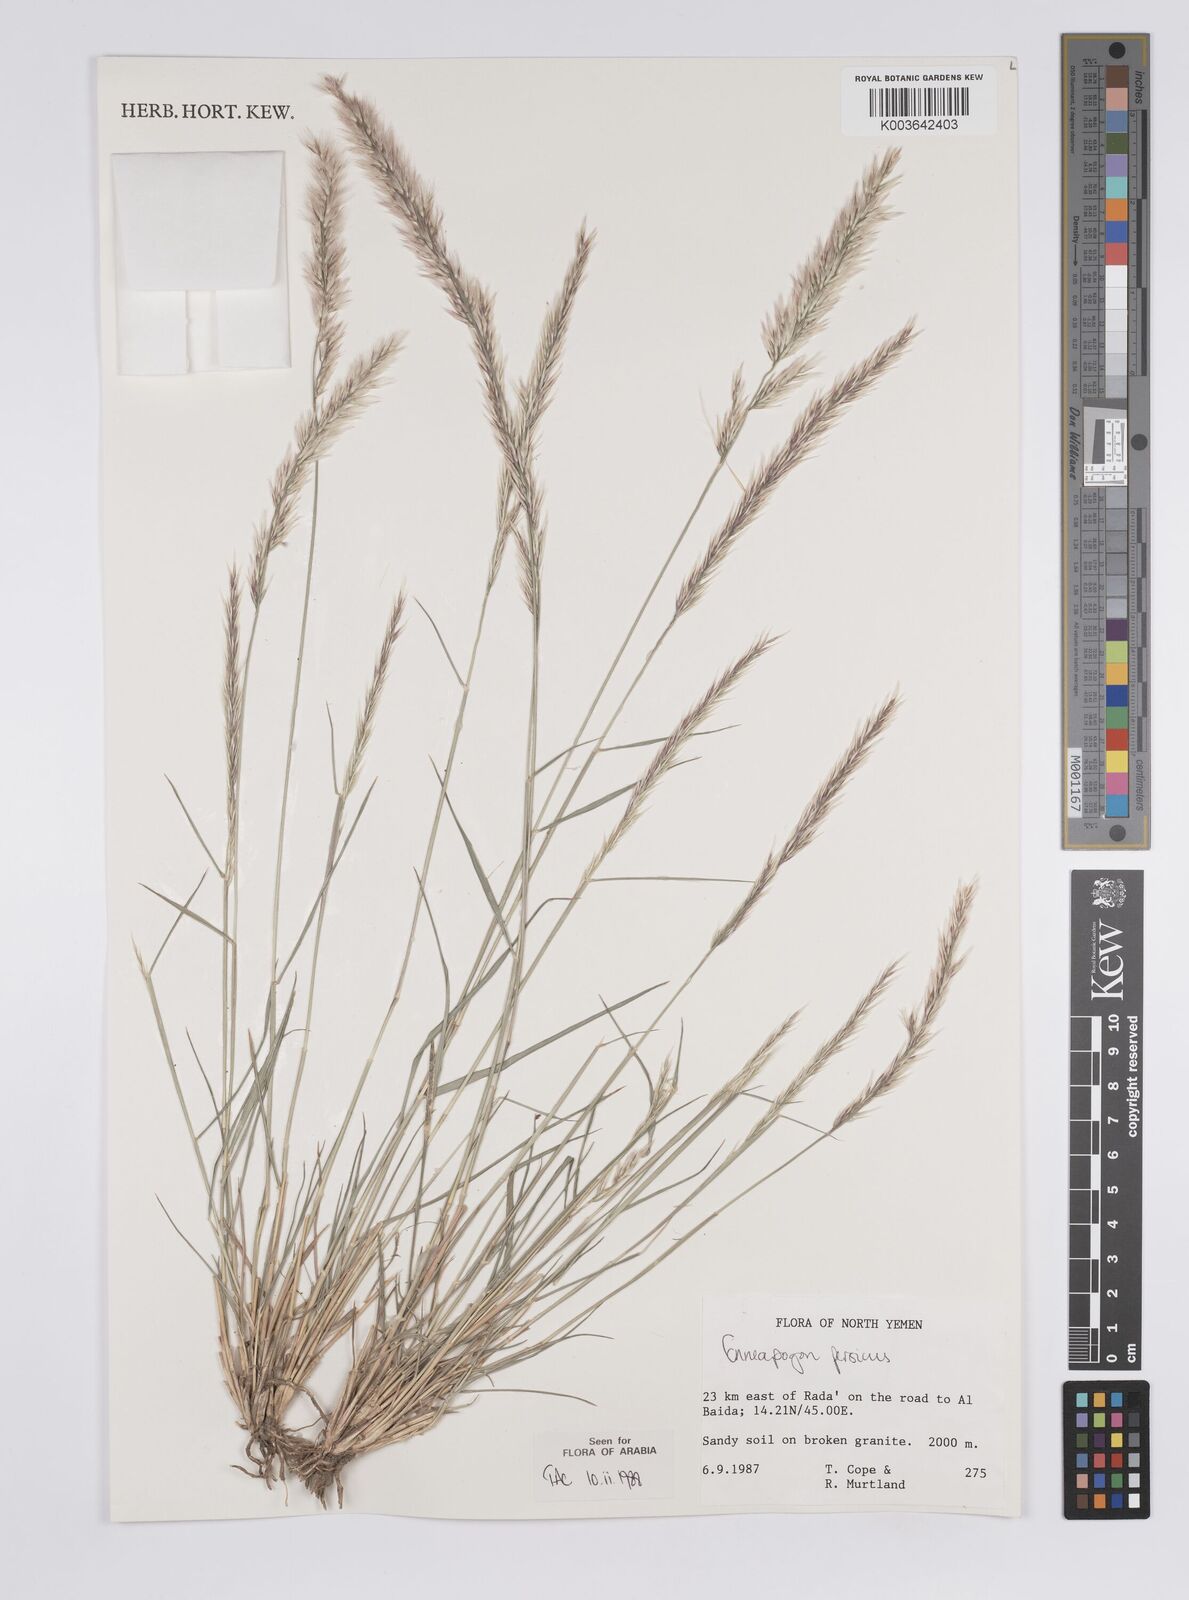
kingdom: Plantae
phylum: Tracheophyta
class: Liliopsida
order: Poales
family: Poaceae
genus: Enneapogon
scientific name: Enneapogon persicus
